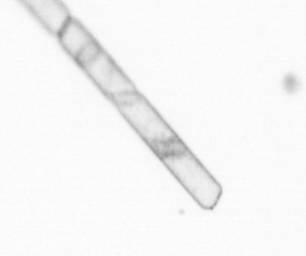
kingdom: Chromista
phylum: Ochrophyta
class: Bacillariophyceae
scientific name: Bacillariophyceae
